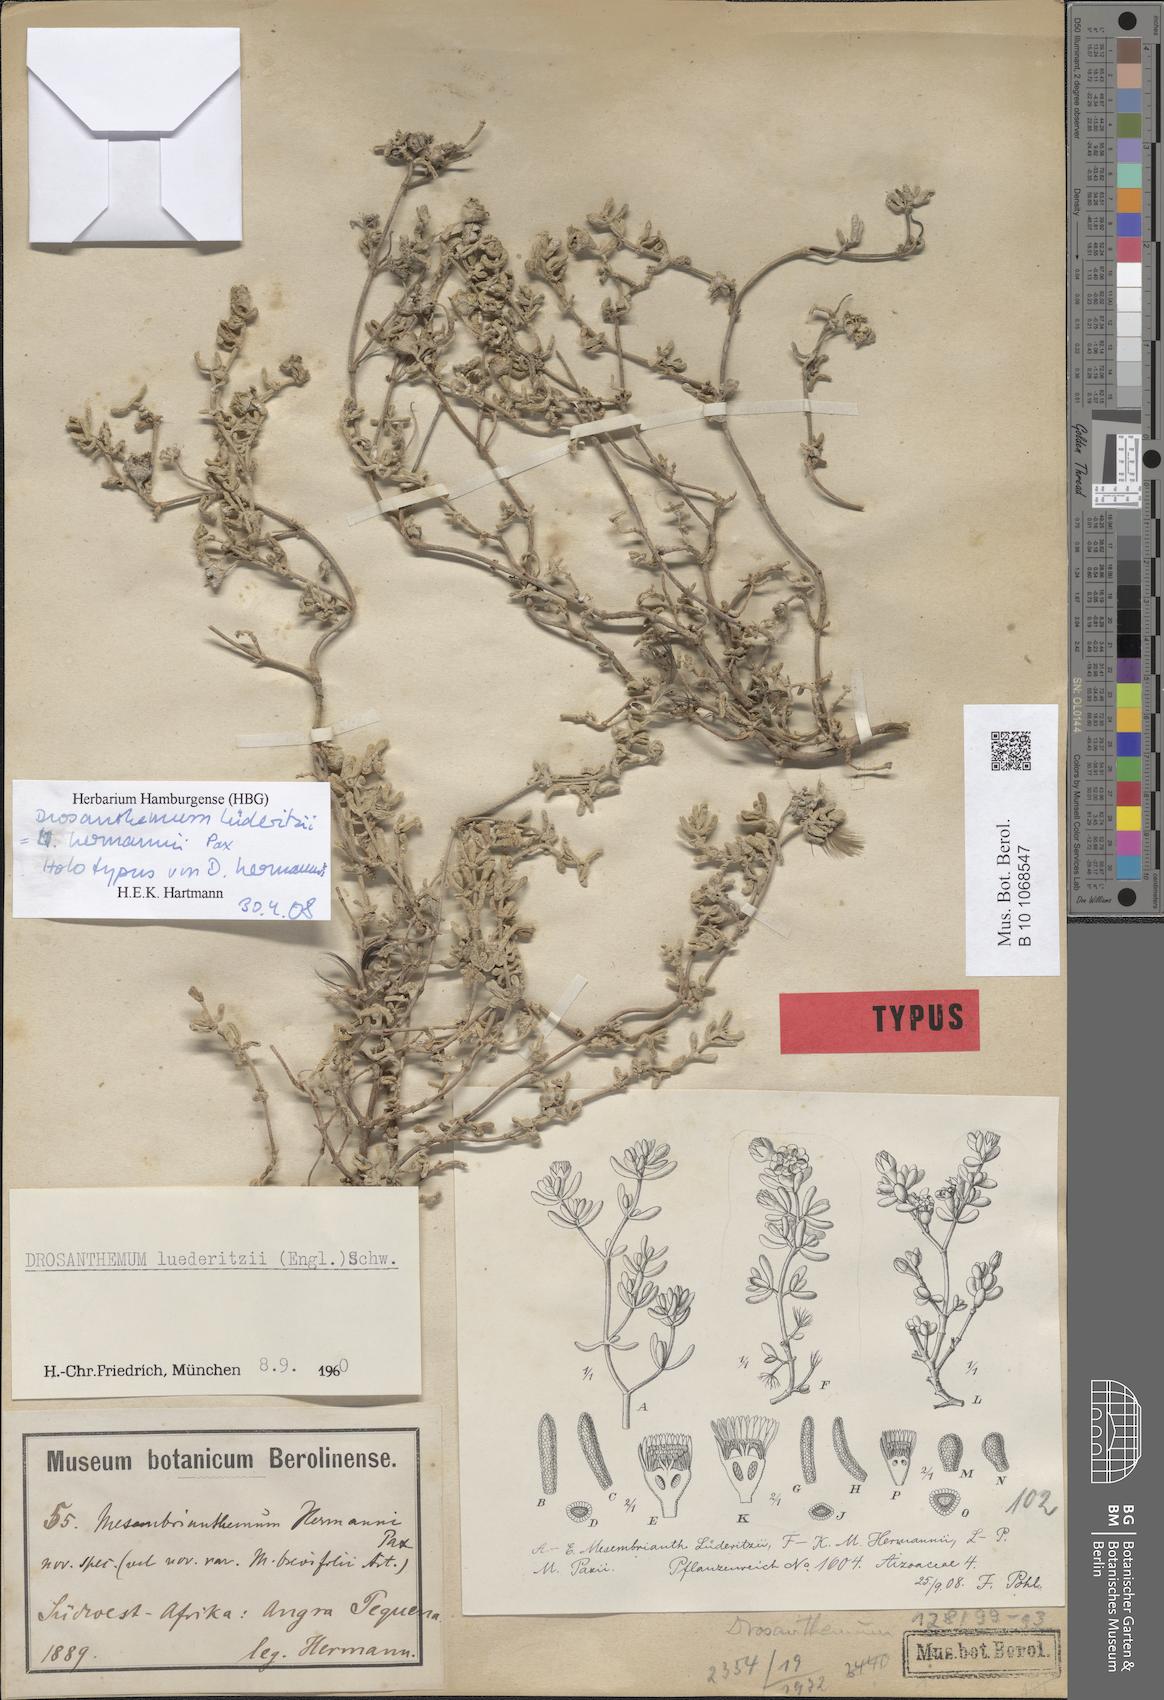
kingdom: Plantae
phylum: Tracheophyta
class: Magnoliopsida
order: Caryophyllales
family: Aizoaceae
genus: Drosanthemum
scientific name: Drosanthemum luederitzii
